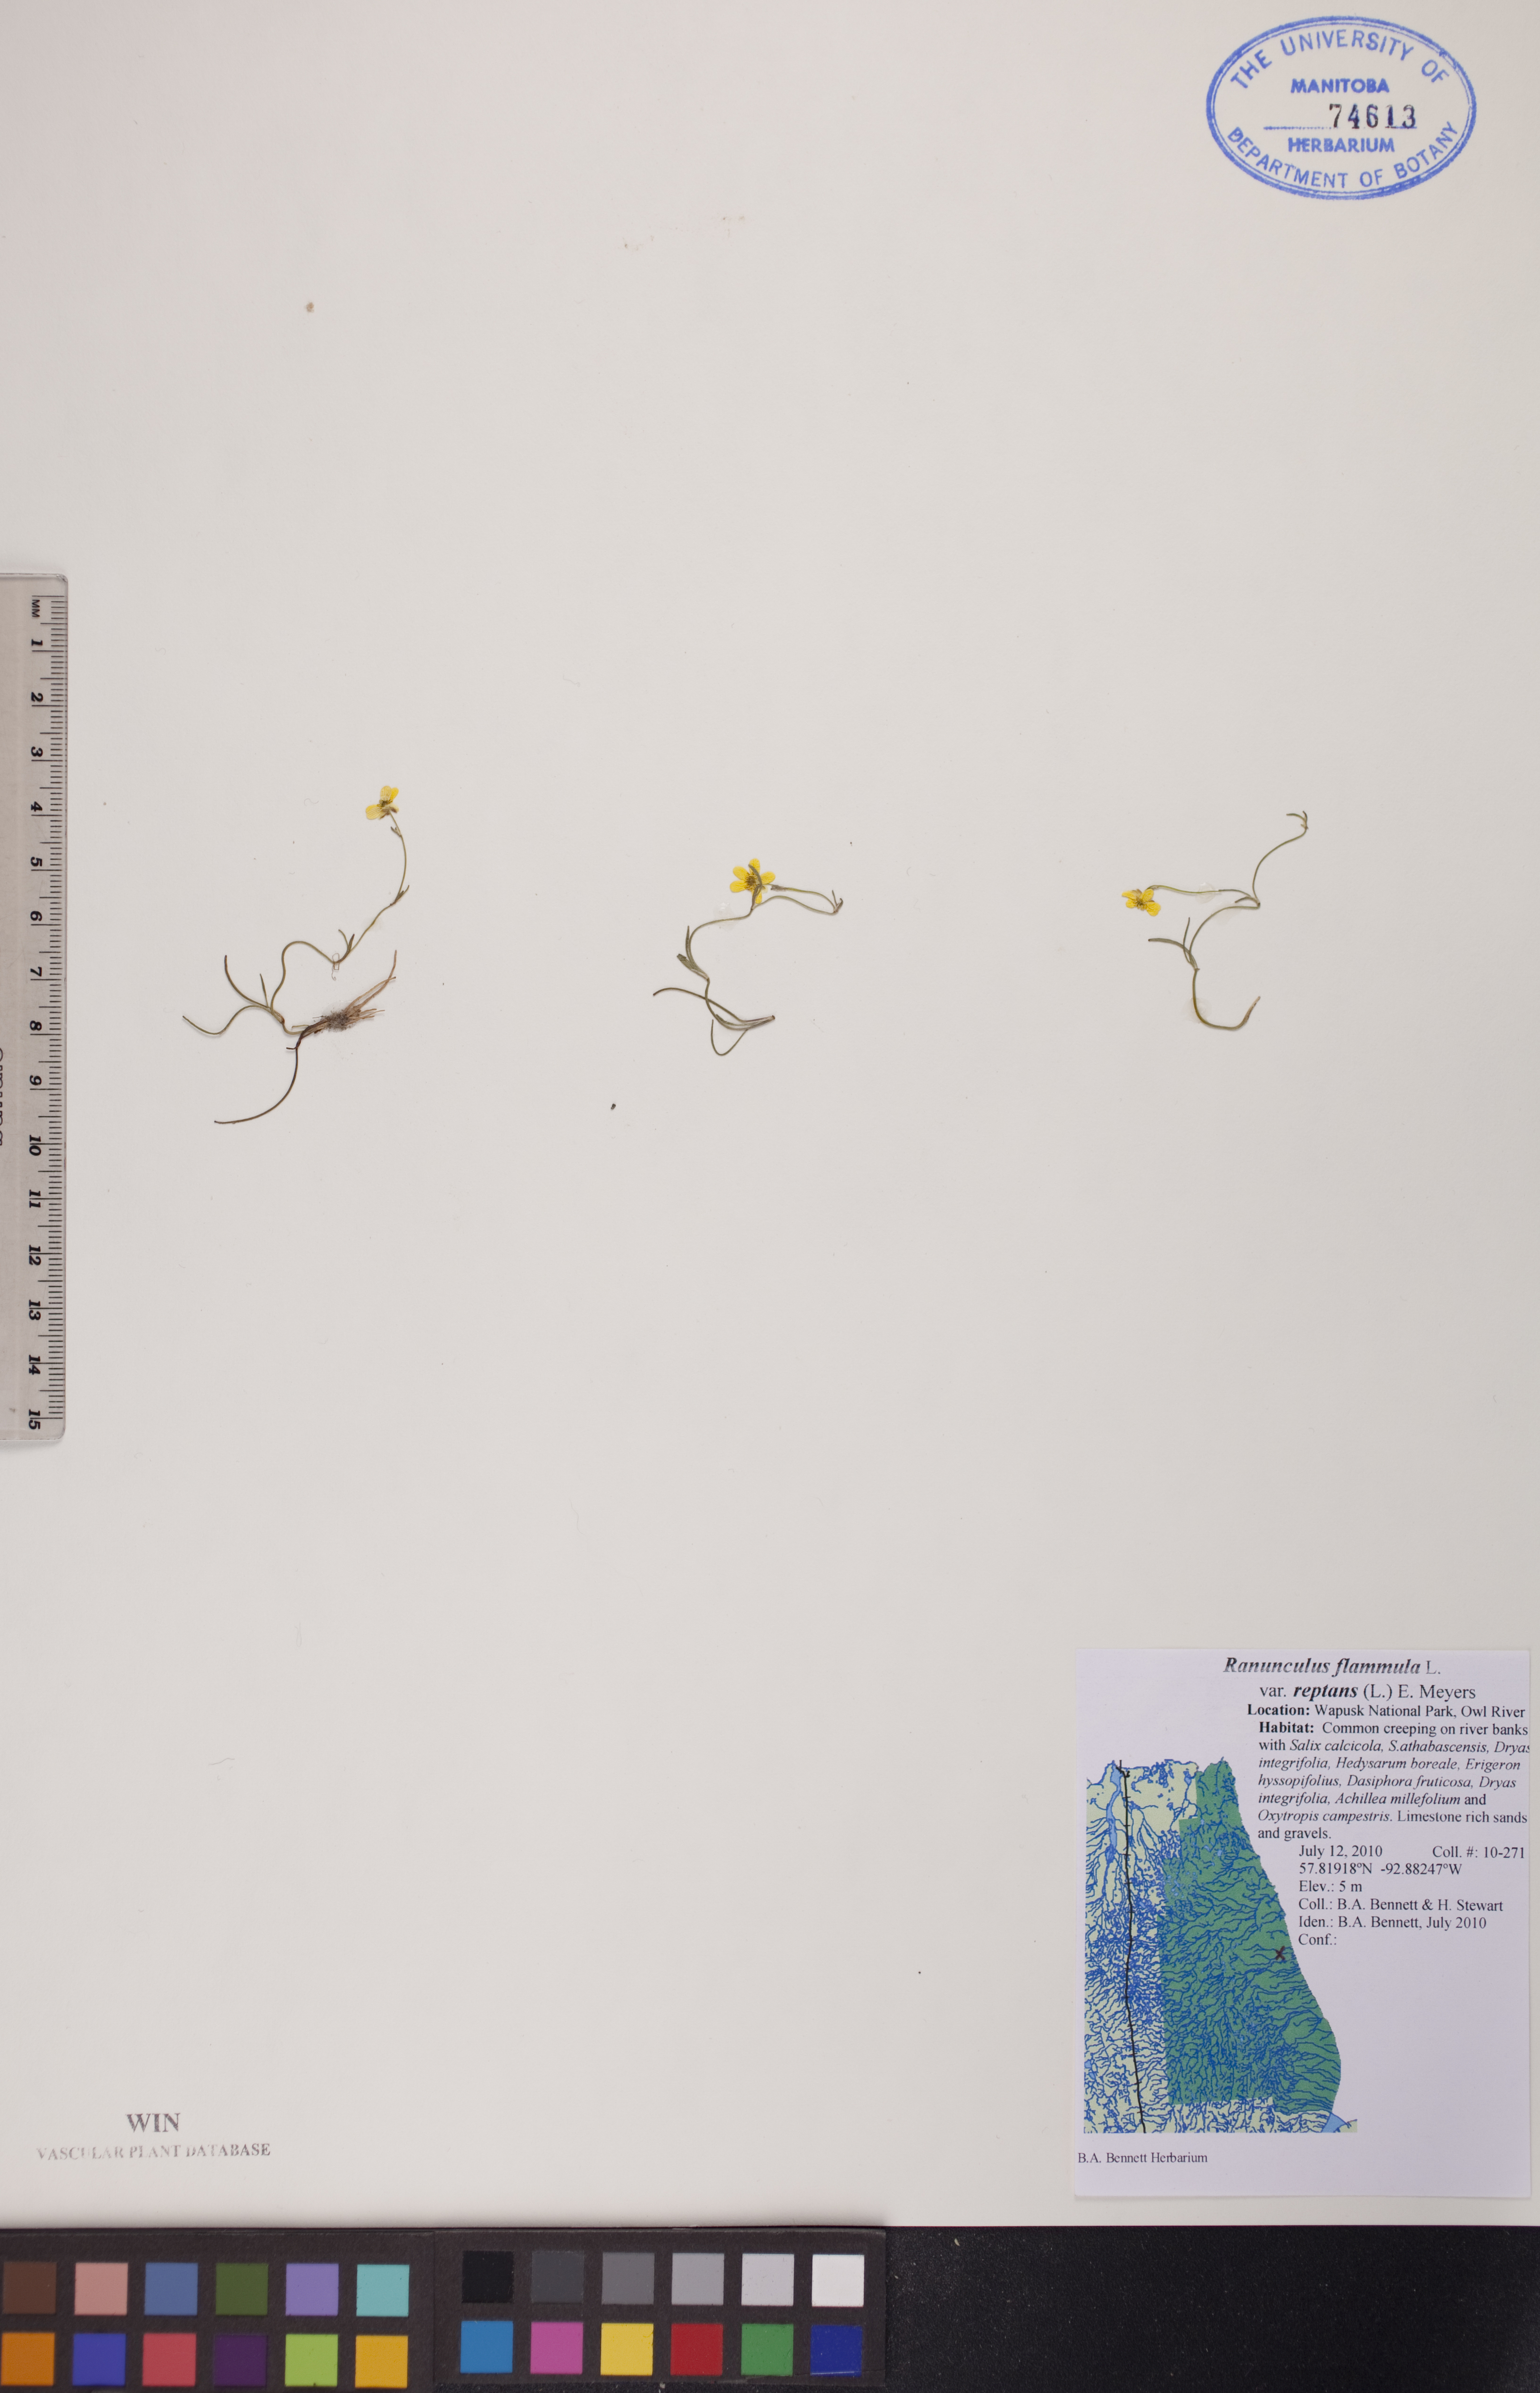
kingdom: Plantae
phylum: Tracheophyta
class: Magnoliopsida
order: Ranunculales
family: Ranunculaceae
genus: Ranunculus
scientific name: Ranunculus flammula
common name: Lesser spearwort
